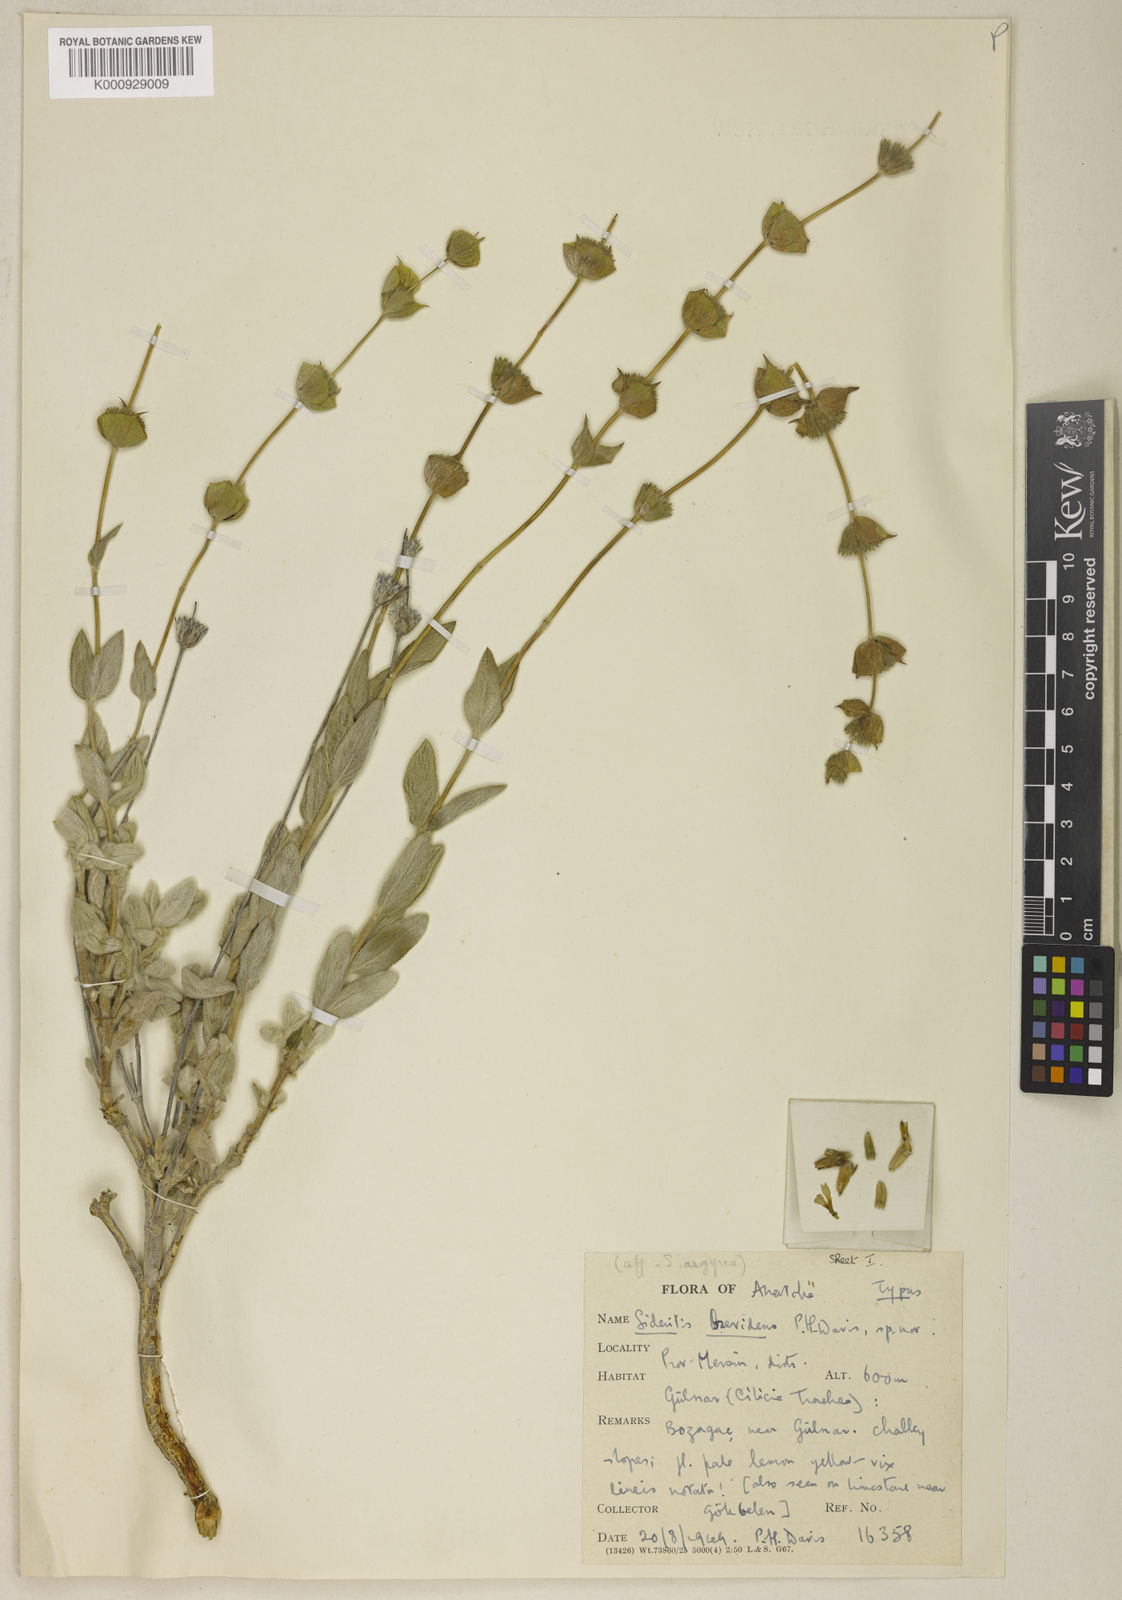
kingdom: Plantae
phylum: Tracheophyta
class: Magnoliopsida
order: Lamiales
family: Lamiaceae
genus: Sideritis
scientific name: Sideritis brevidens
